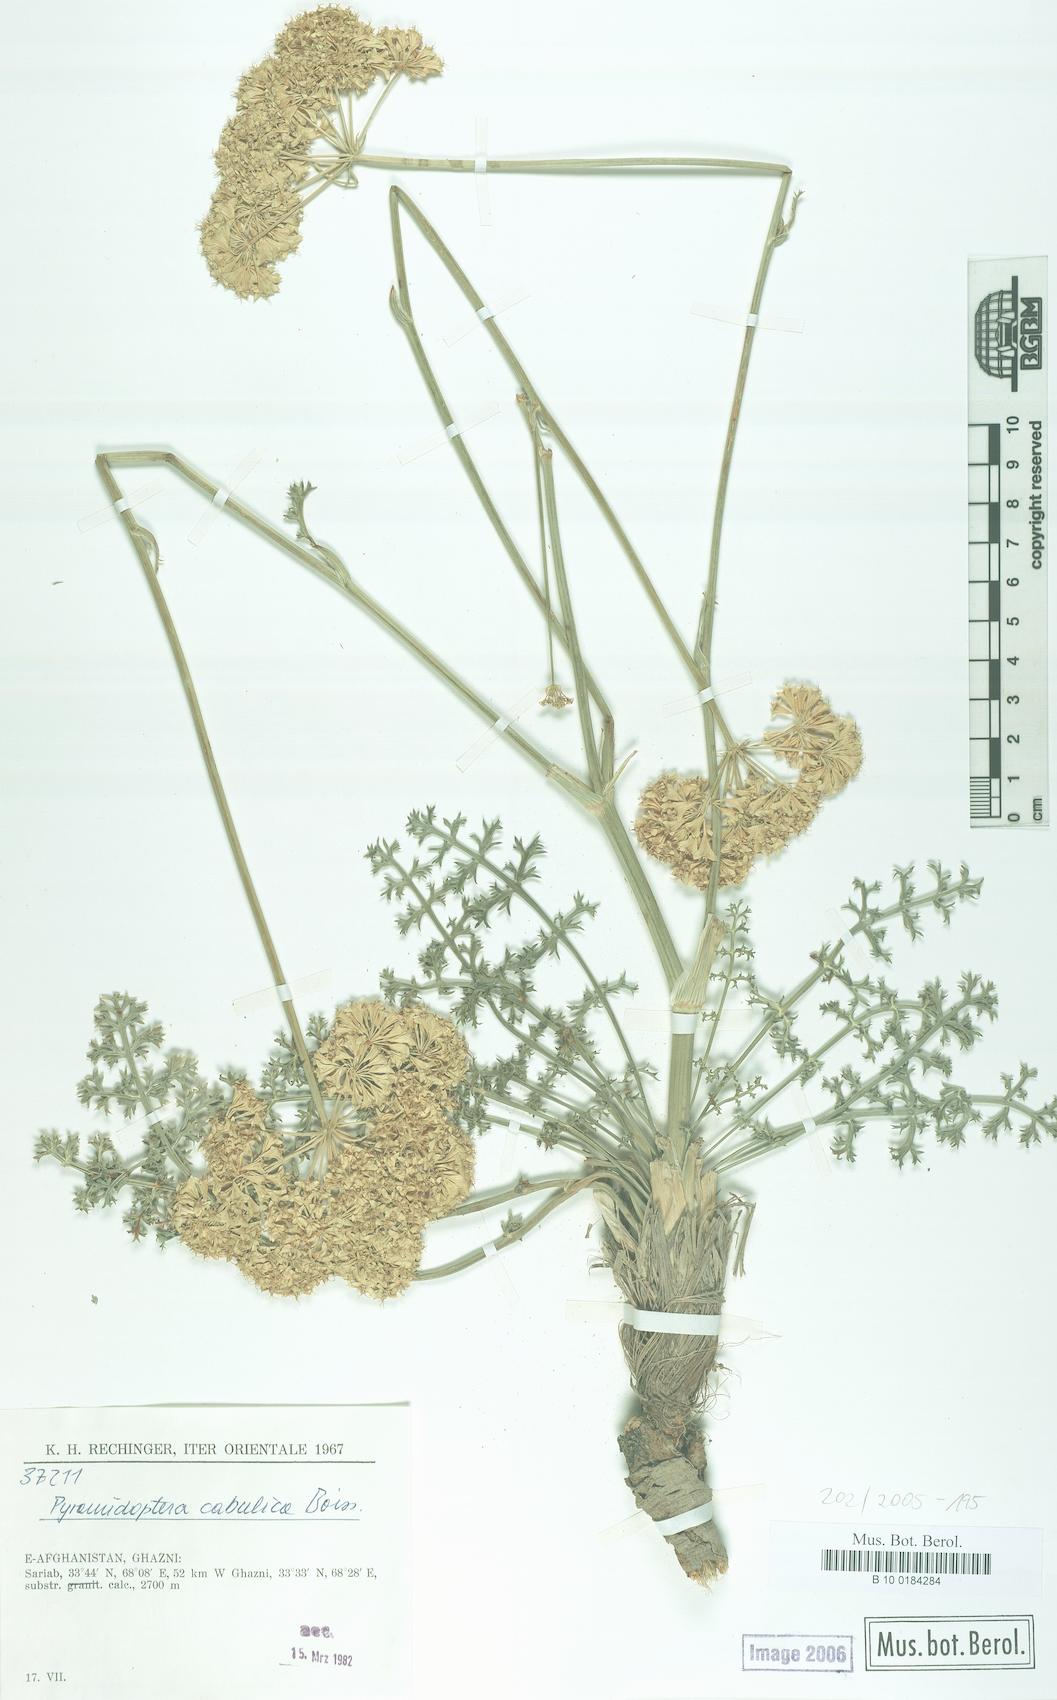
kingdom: Plantae
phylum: Tracheophyta
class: Magnoliopsida
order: Apiales
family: Apiaceae
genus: Pyramidoptera
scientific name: Pyramidoptera cabulica
